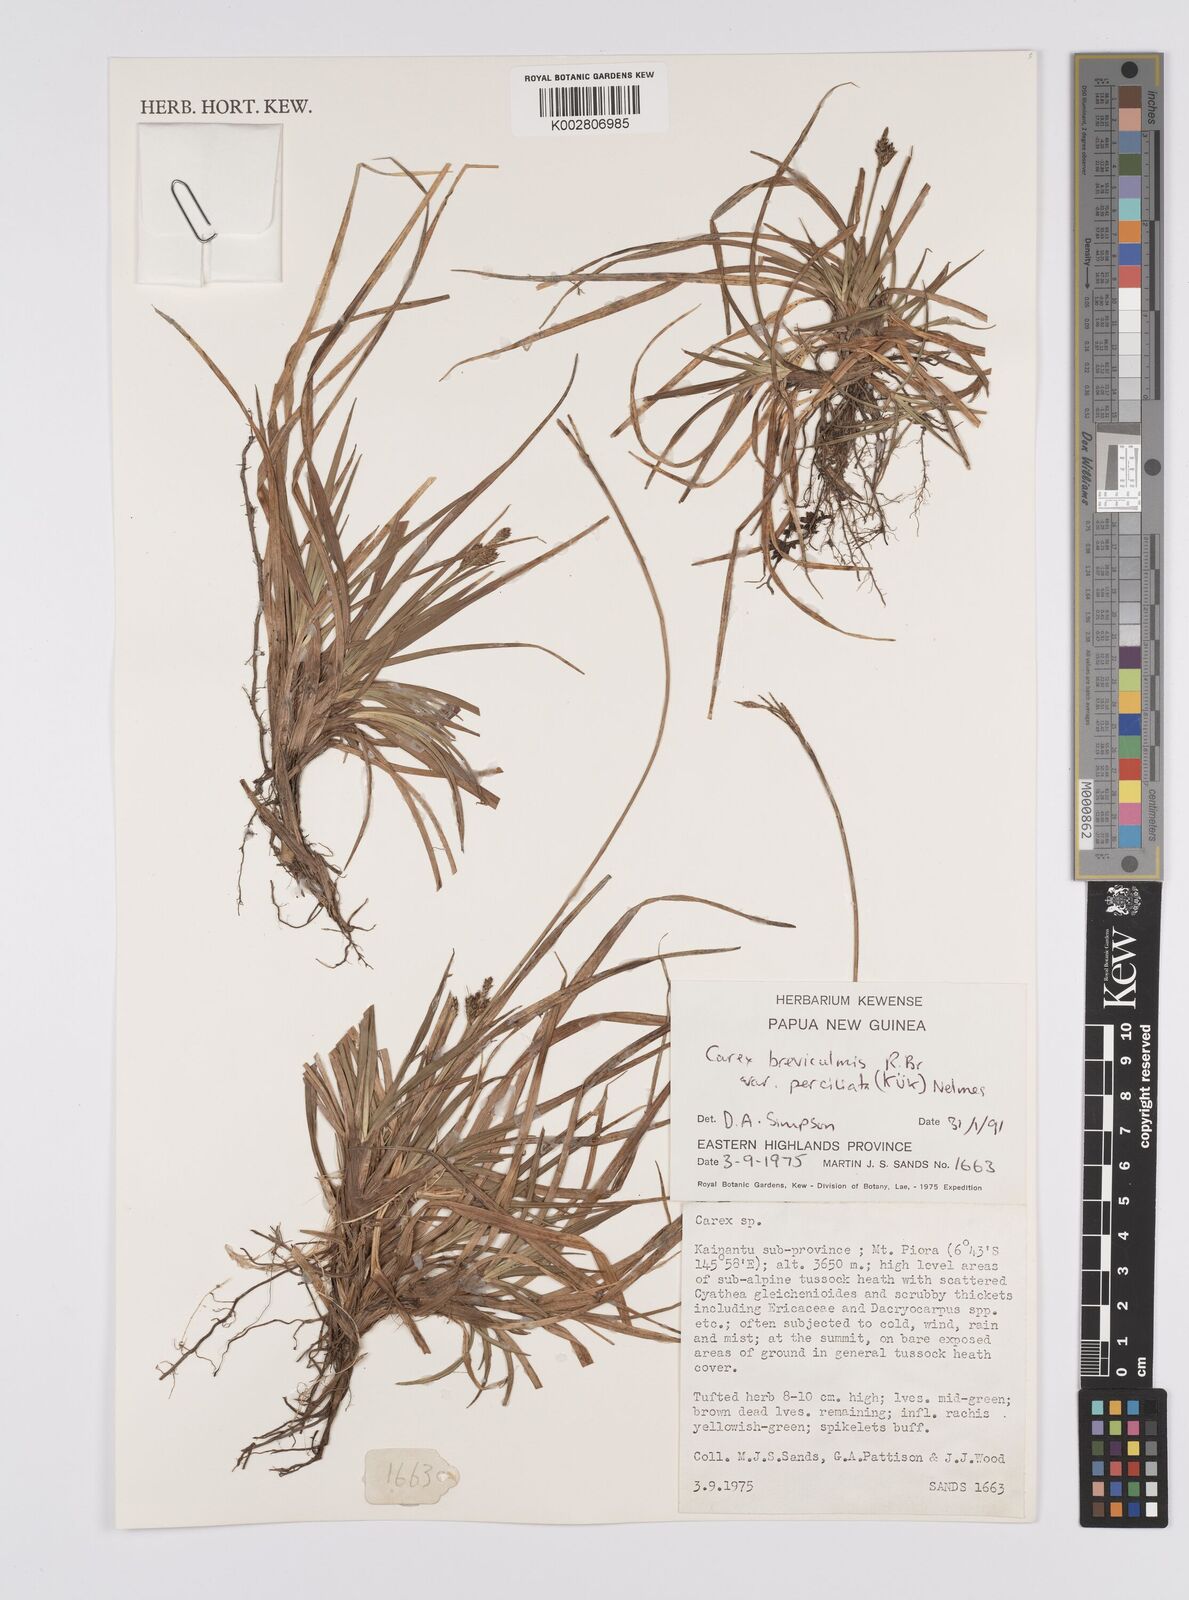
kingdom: Plantae
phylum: Tracheophyta
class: Liliopsida
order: Poales
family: Cyperaceae
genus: Carex
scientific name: Carex breviculmis
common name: Asian shortstem sedge
